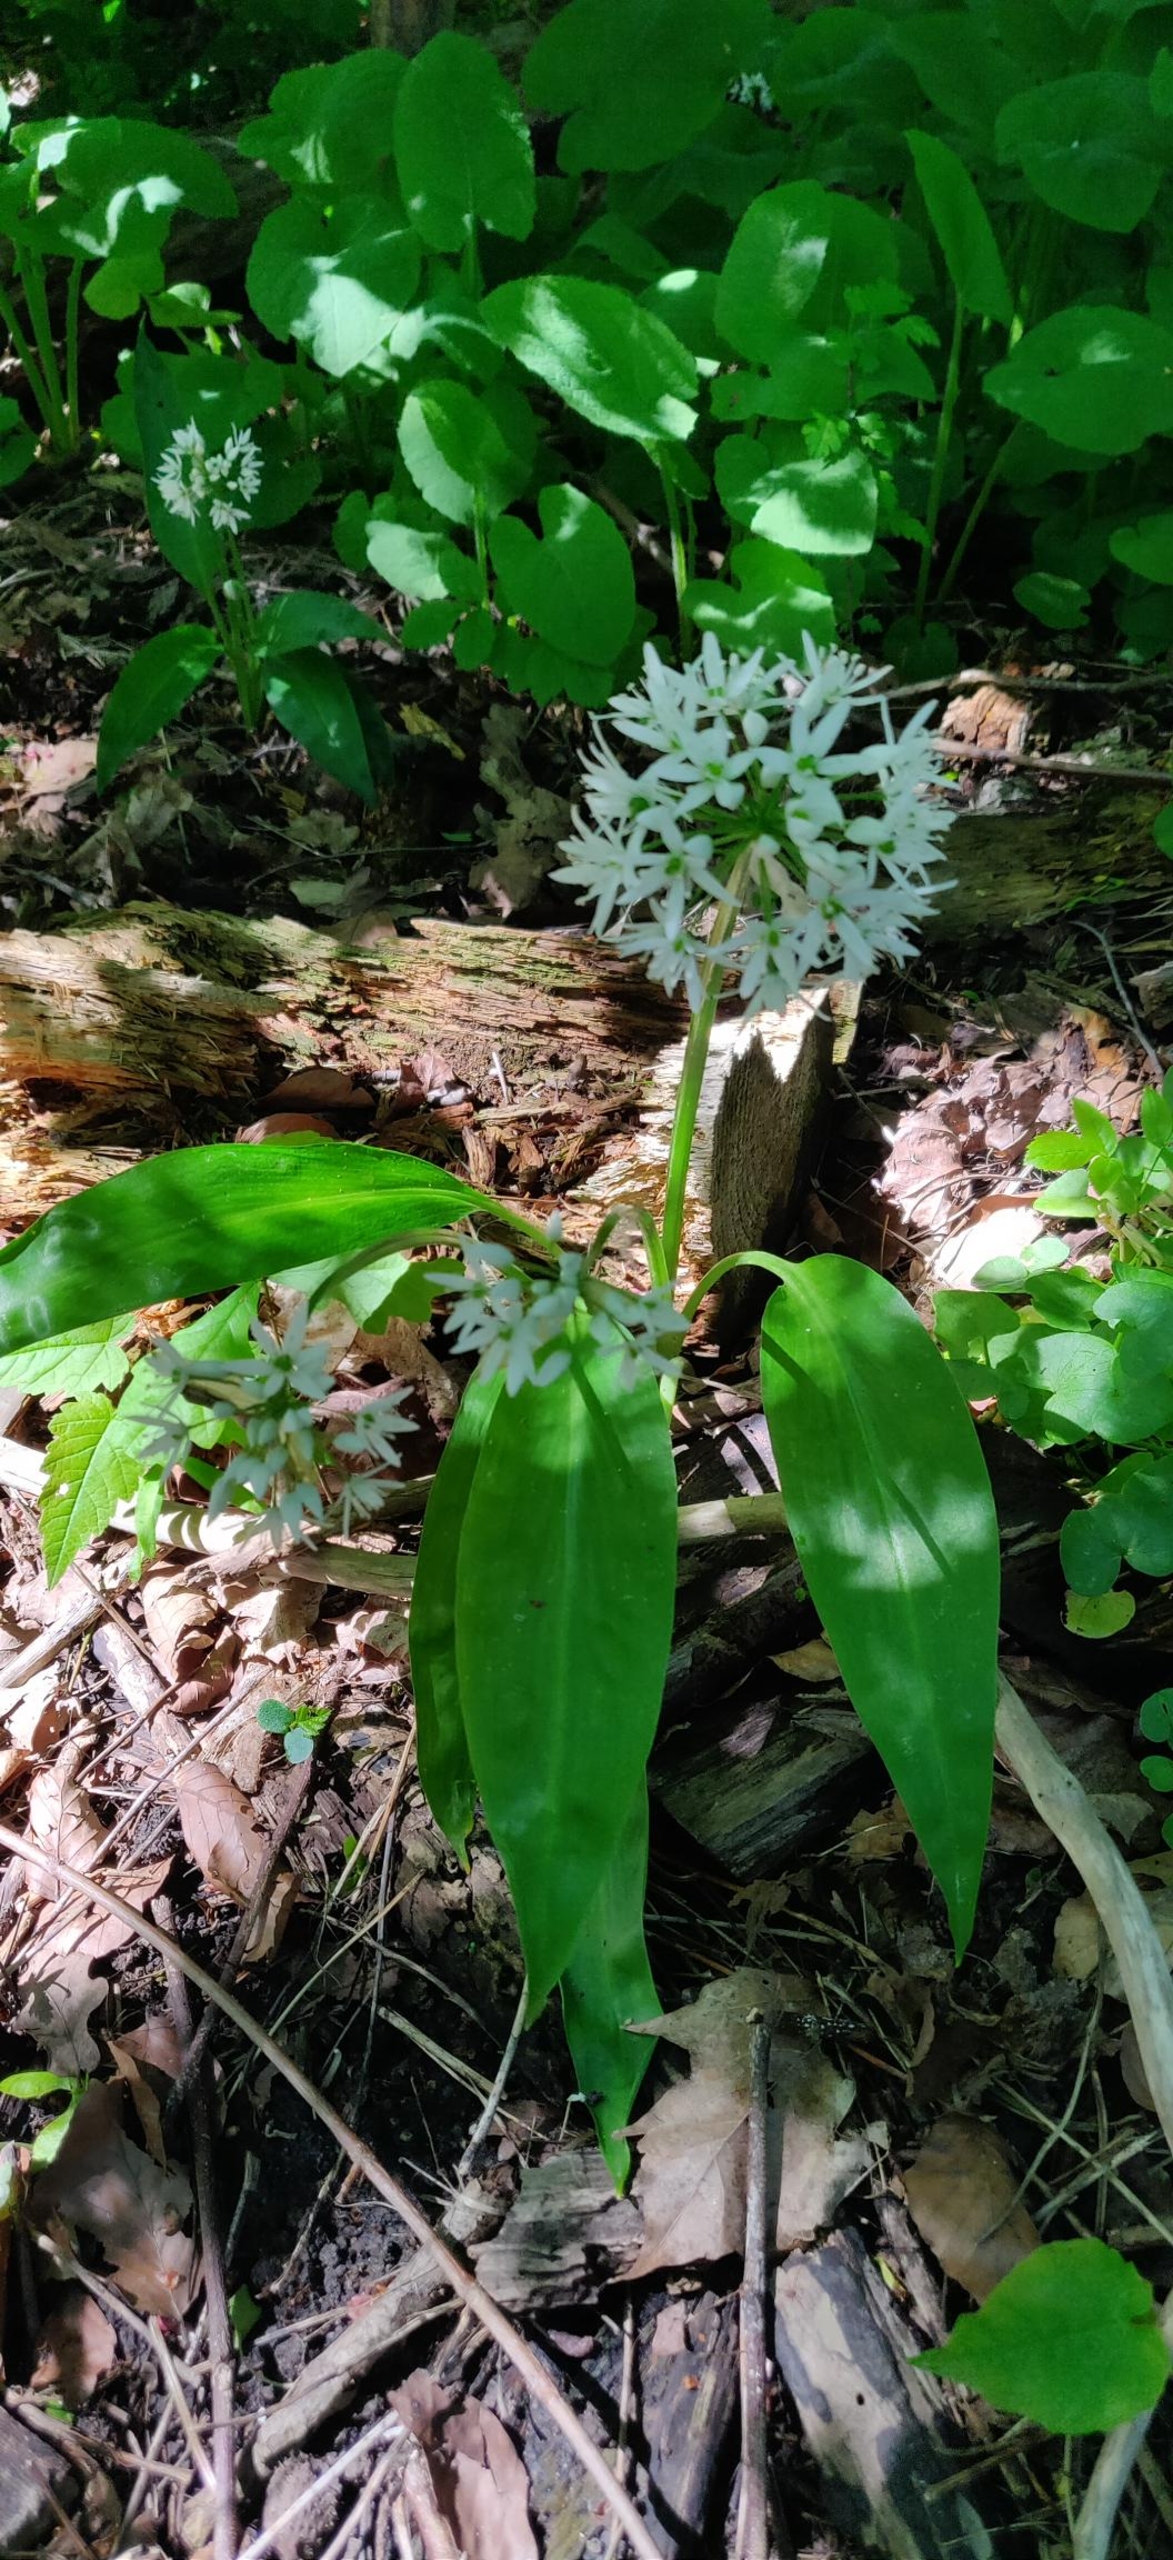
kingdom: Plantae
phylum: Tracheophyta
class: Liliopsida
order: Asparagales
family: Amaryllidaceae
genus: Allium
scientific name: Allium ursinum
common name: Rams-løg
